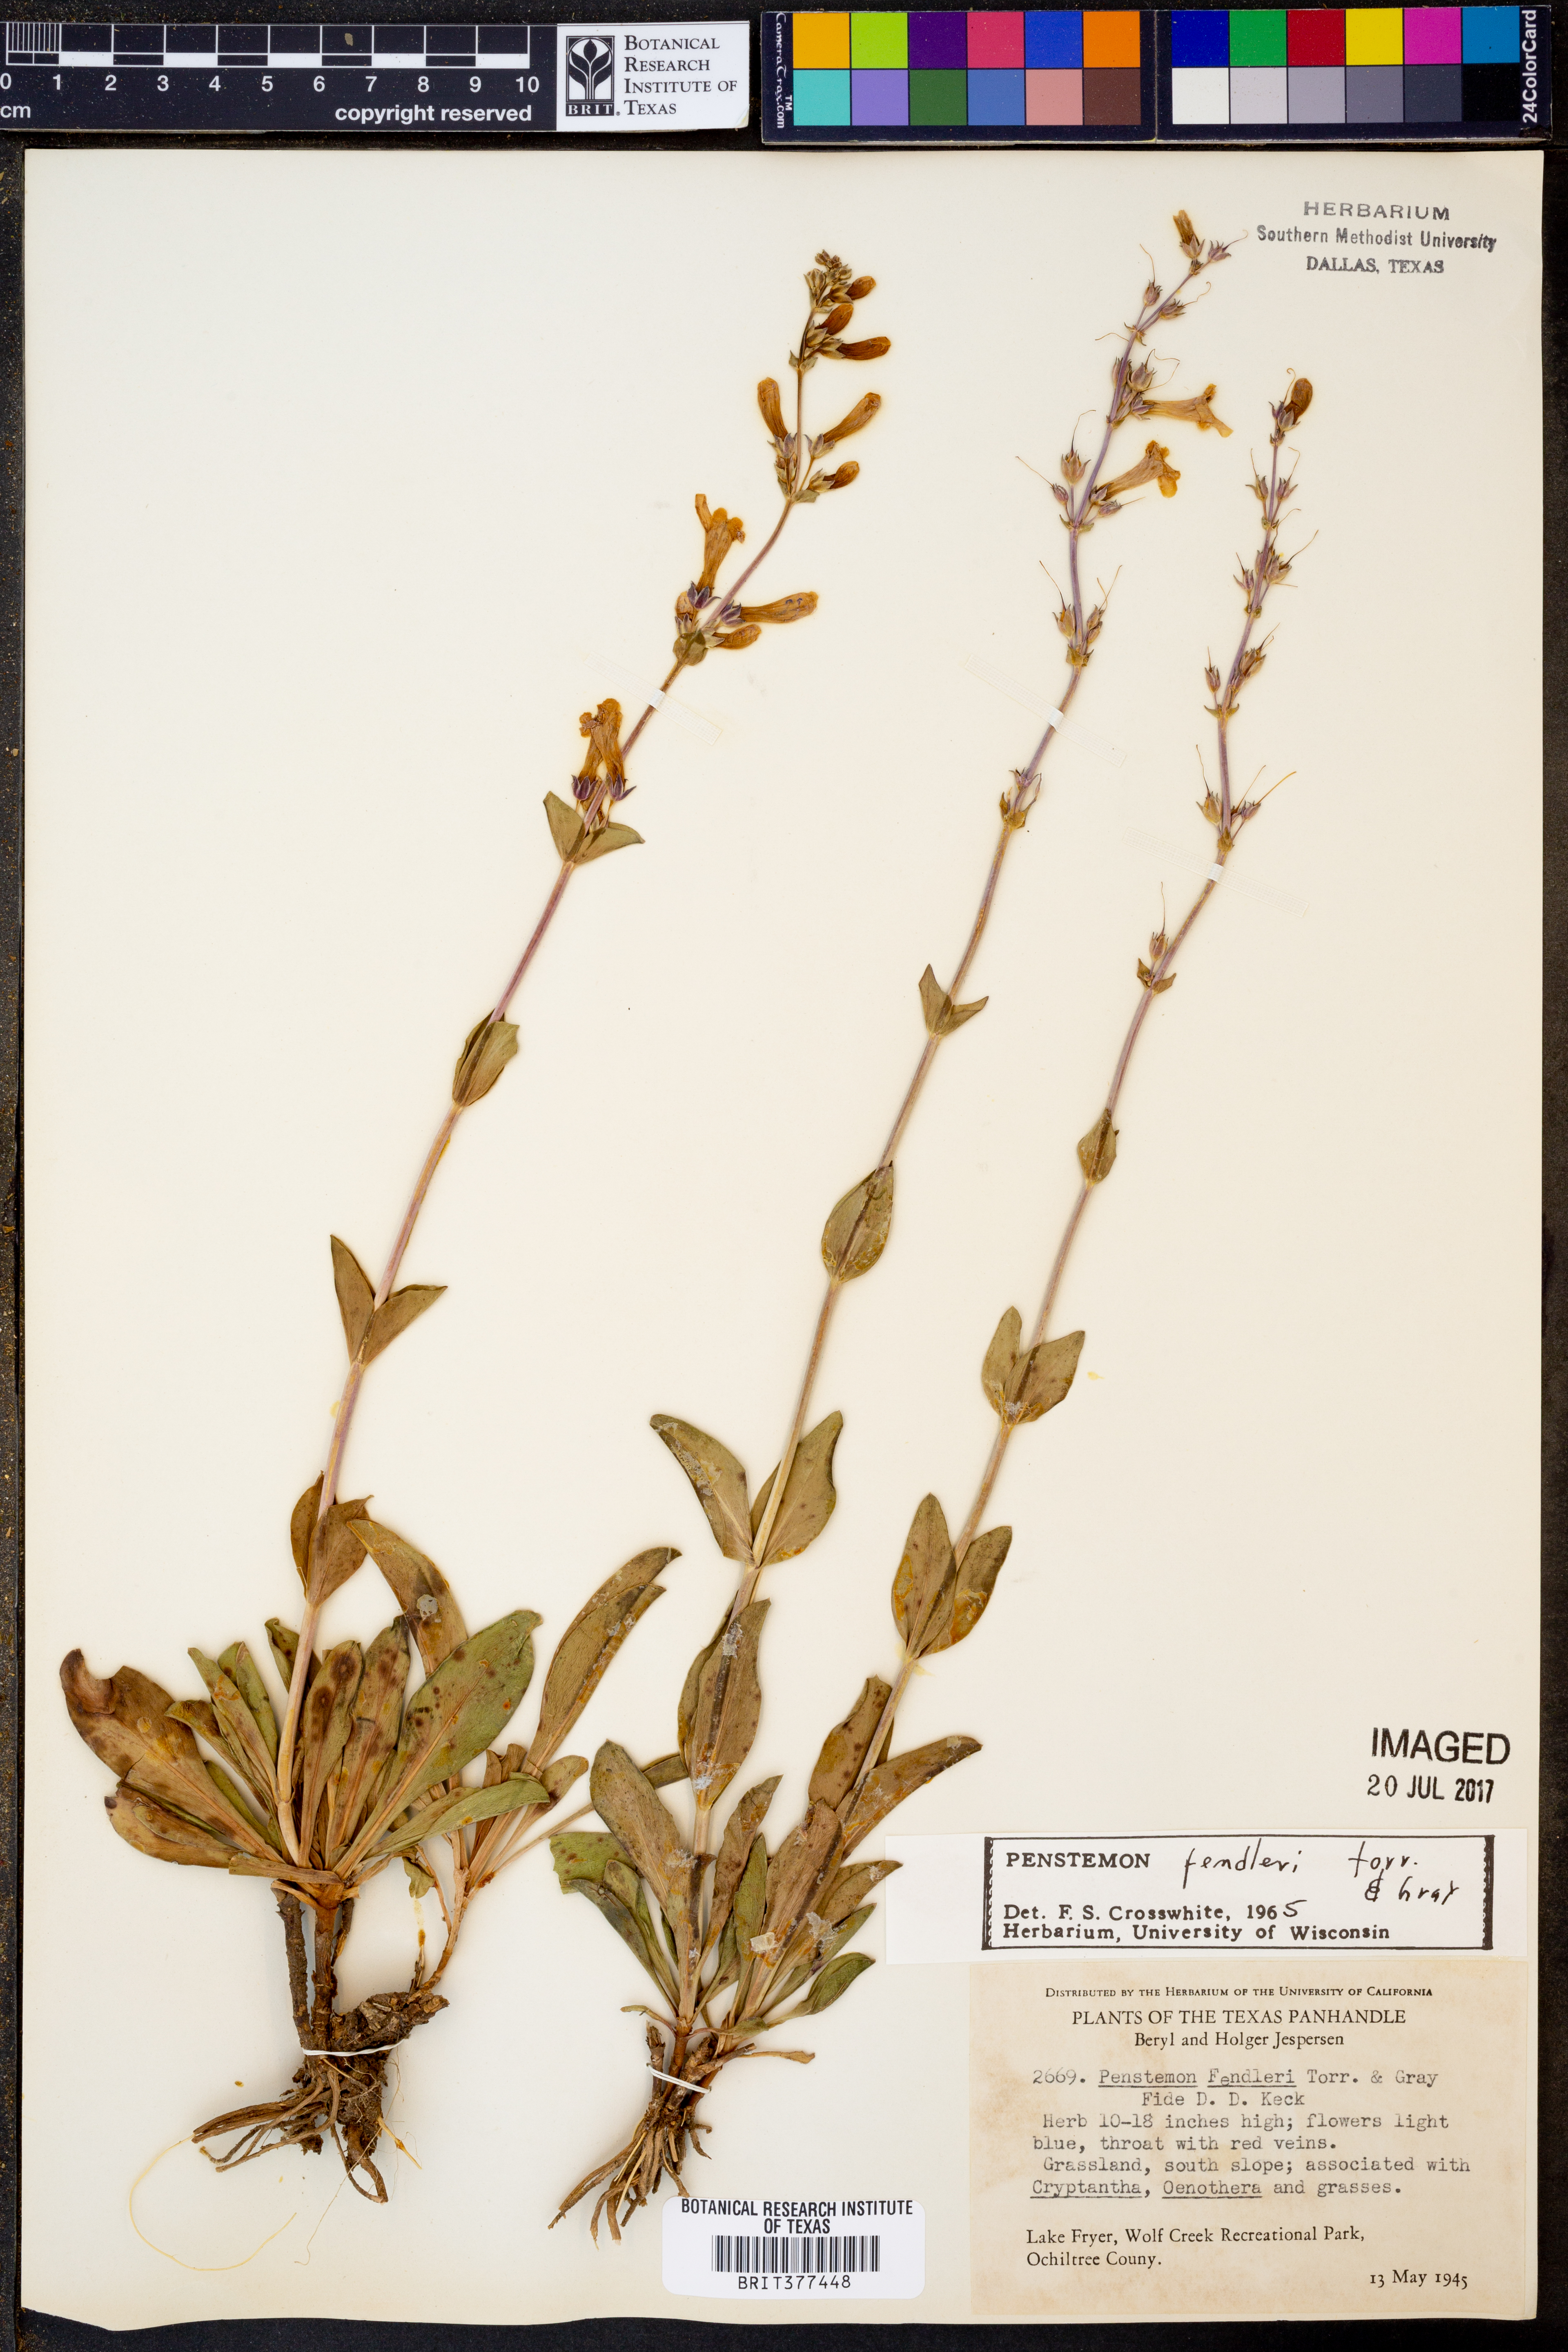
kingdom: Plantae
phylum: Tracheophyta
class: Magnoliopsida
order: Lamiales
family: Plantaginaceae
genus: Penstemon
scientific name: Penstemon fendleri
